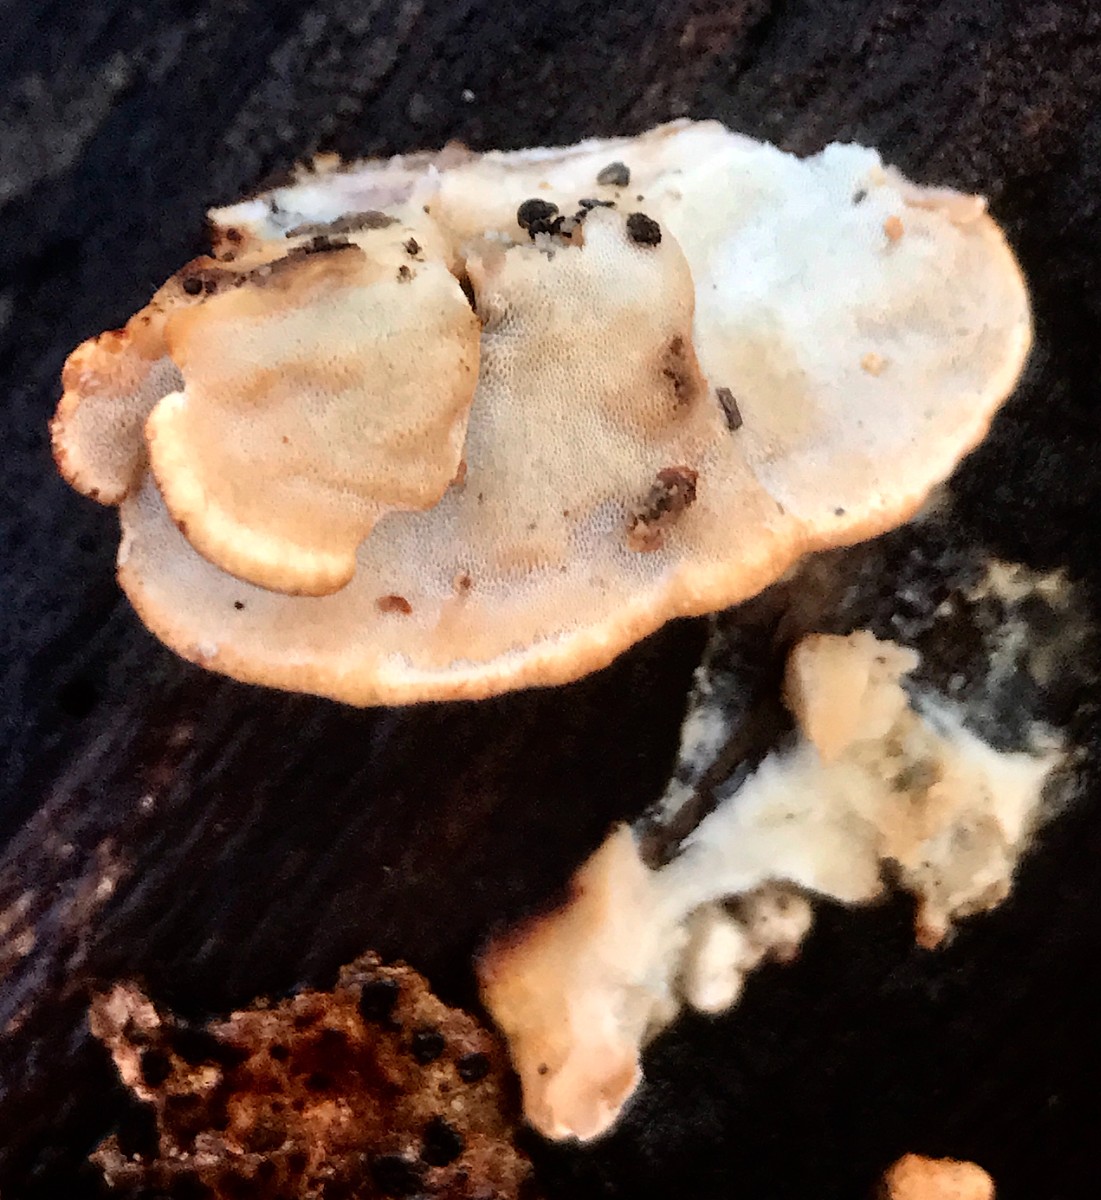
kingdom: Fungi
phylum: Basidiomycota
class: Agaricomycetes
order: Polyporales
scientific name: Polyporales
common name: poresvampordenen
